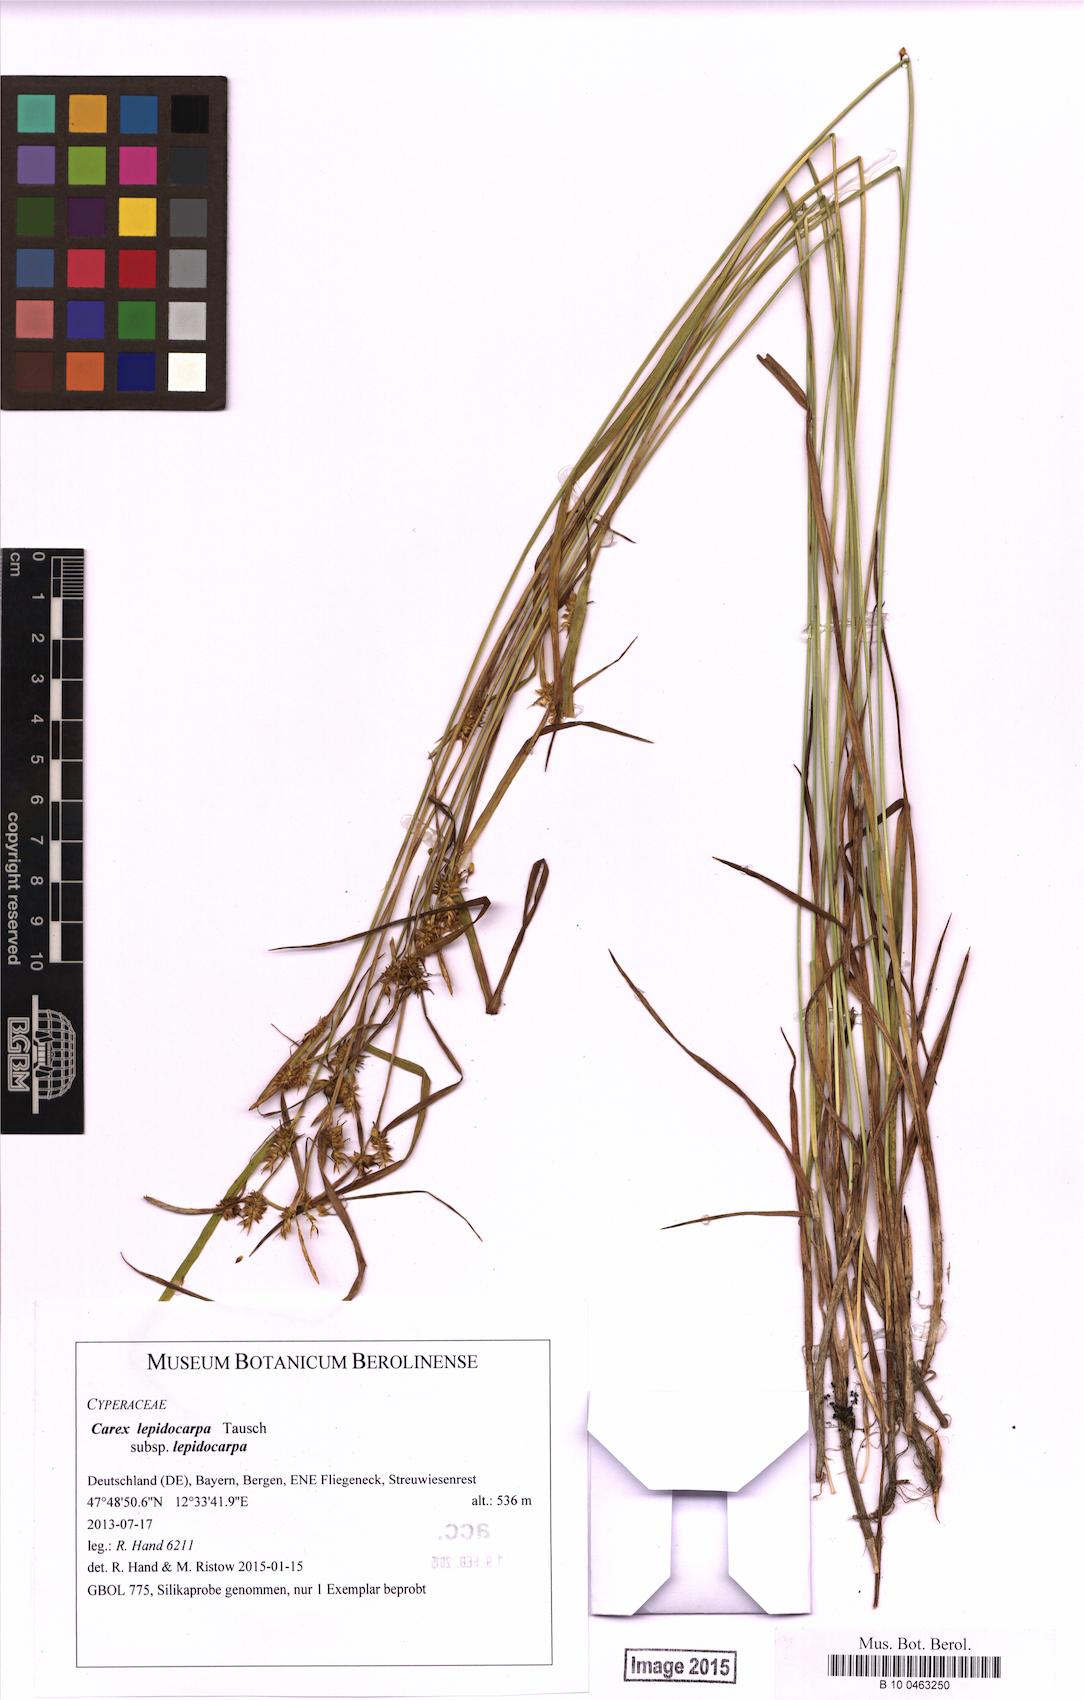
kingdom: Plantae
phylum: Tracheophyta
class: Liliopsida
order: Poales
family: Cyperaceae
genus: Carex
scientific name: Carex lepidocarpa
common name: Long-stalked yellow-sedge
